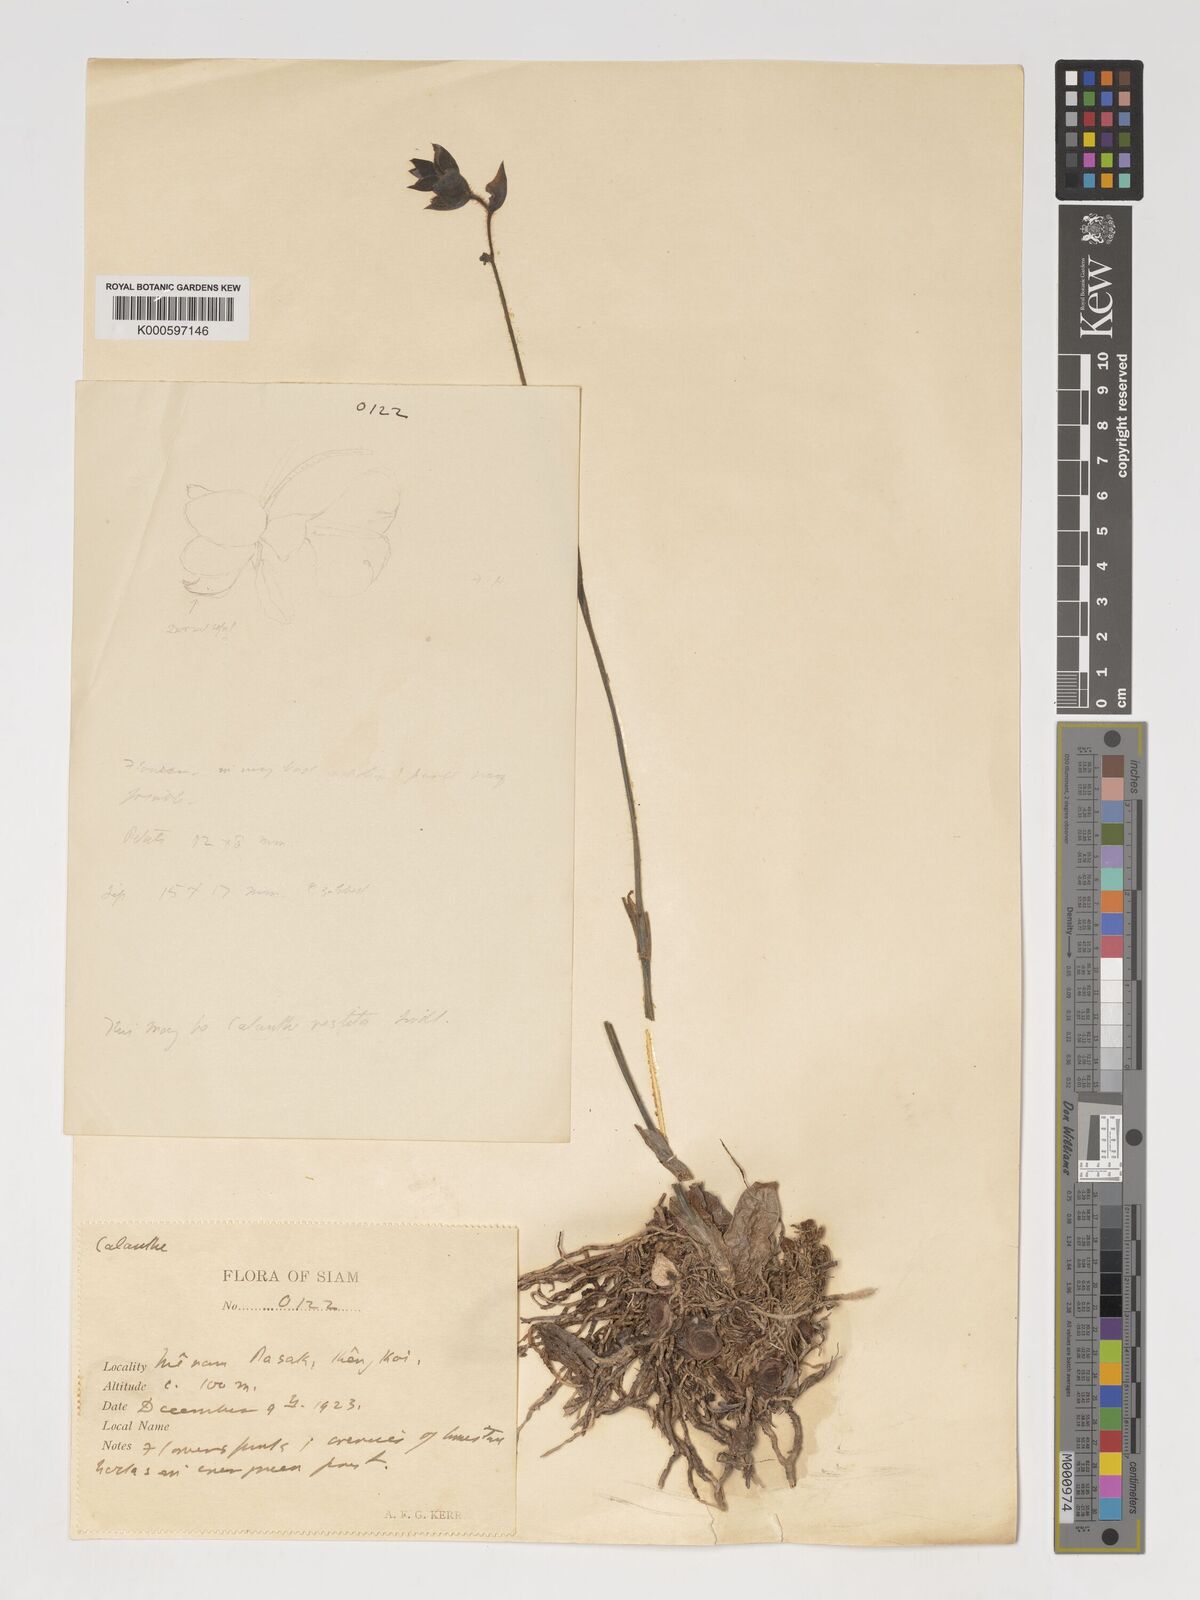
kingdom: Plantae
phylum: Tracheophyta
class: Liliopsida
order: Asparagales
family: Orchidaceae
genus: Calanthe
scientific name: Calanthe vestita
